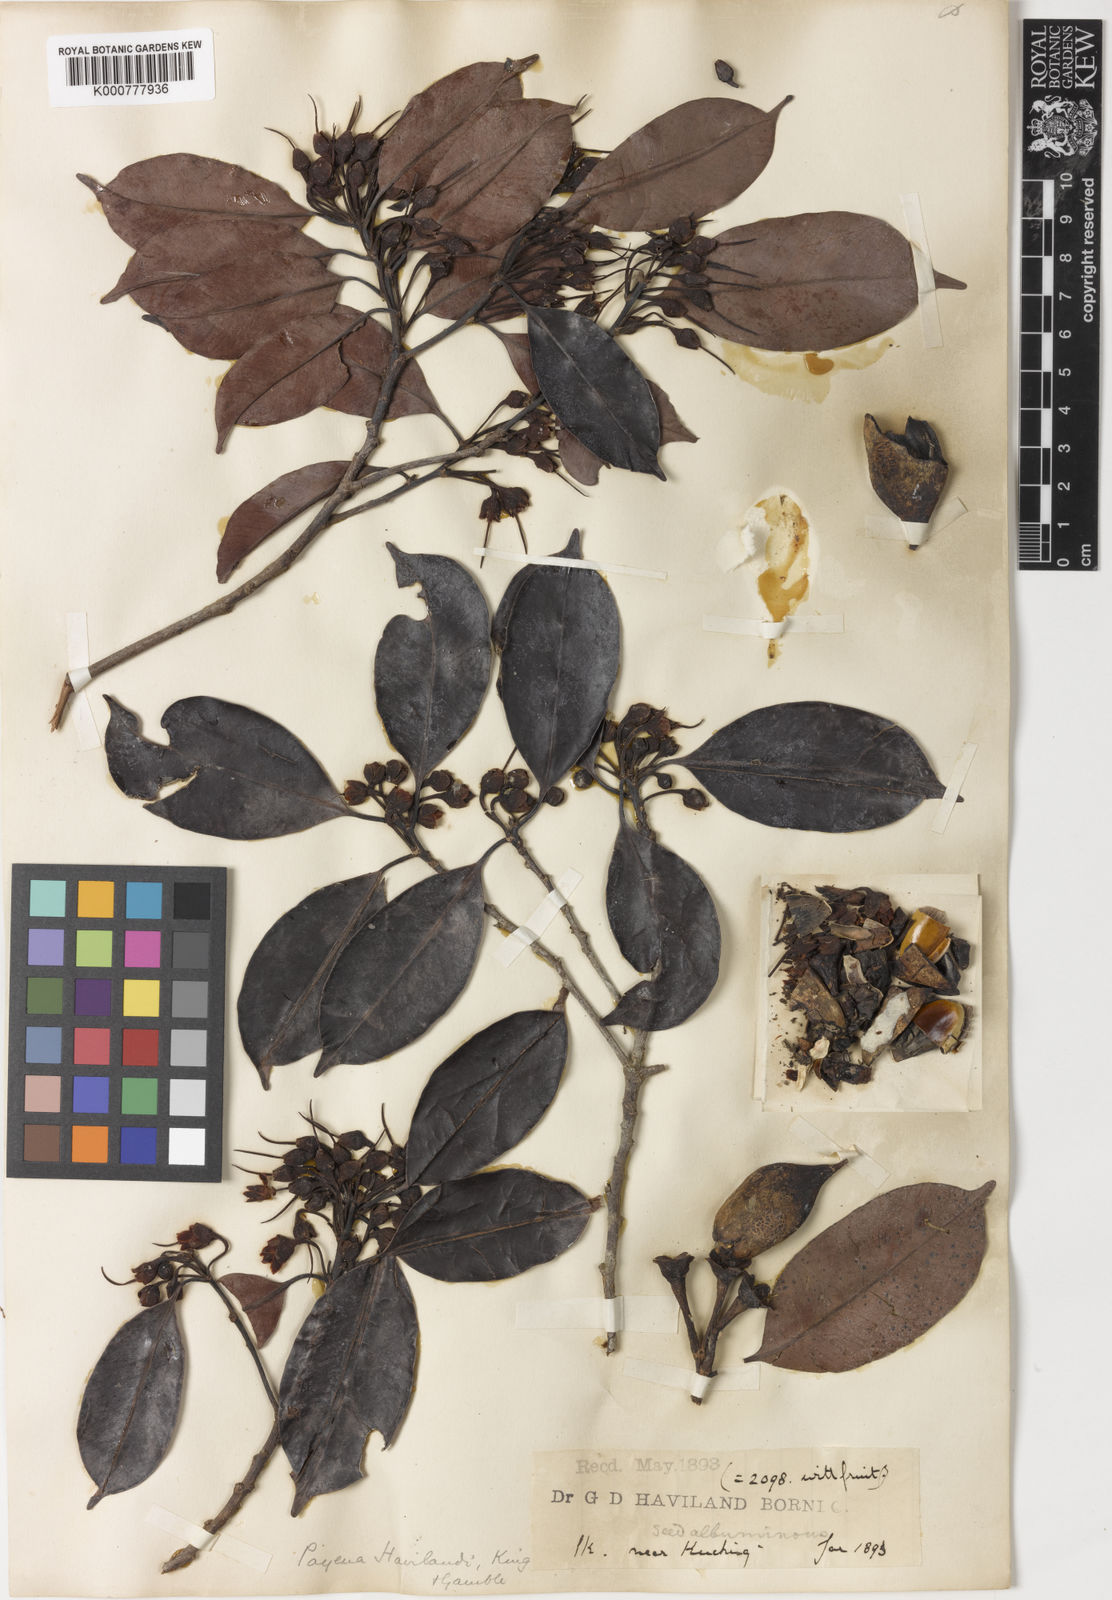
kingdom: Plantae
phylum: Tracheophyta
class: Magnoliopsida
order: Ericales
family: Sapotaceae
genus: Payena
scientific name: Payena obscura
